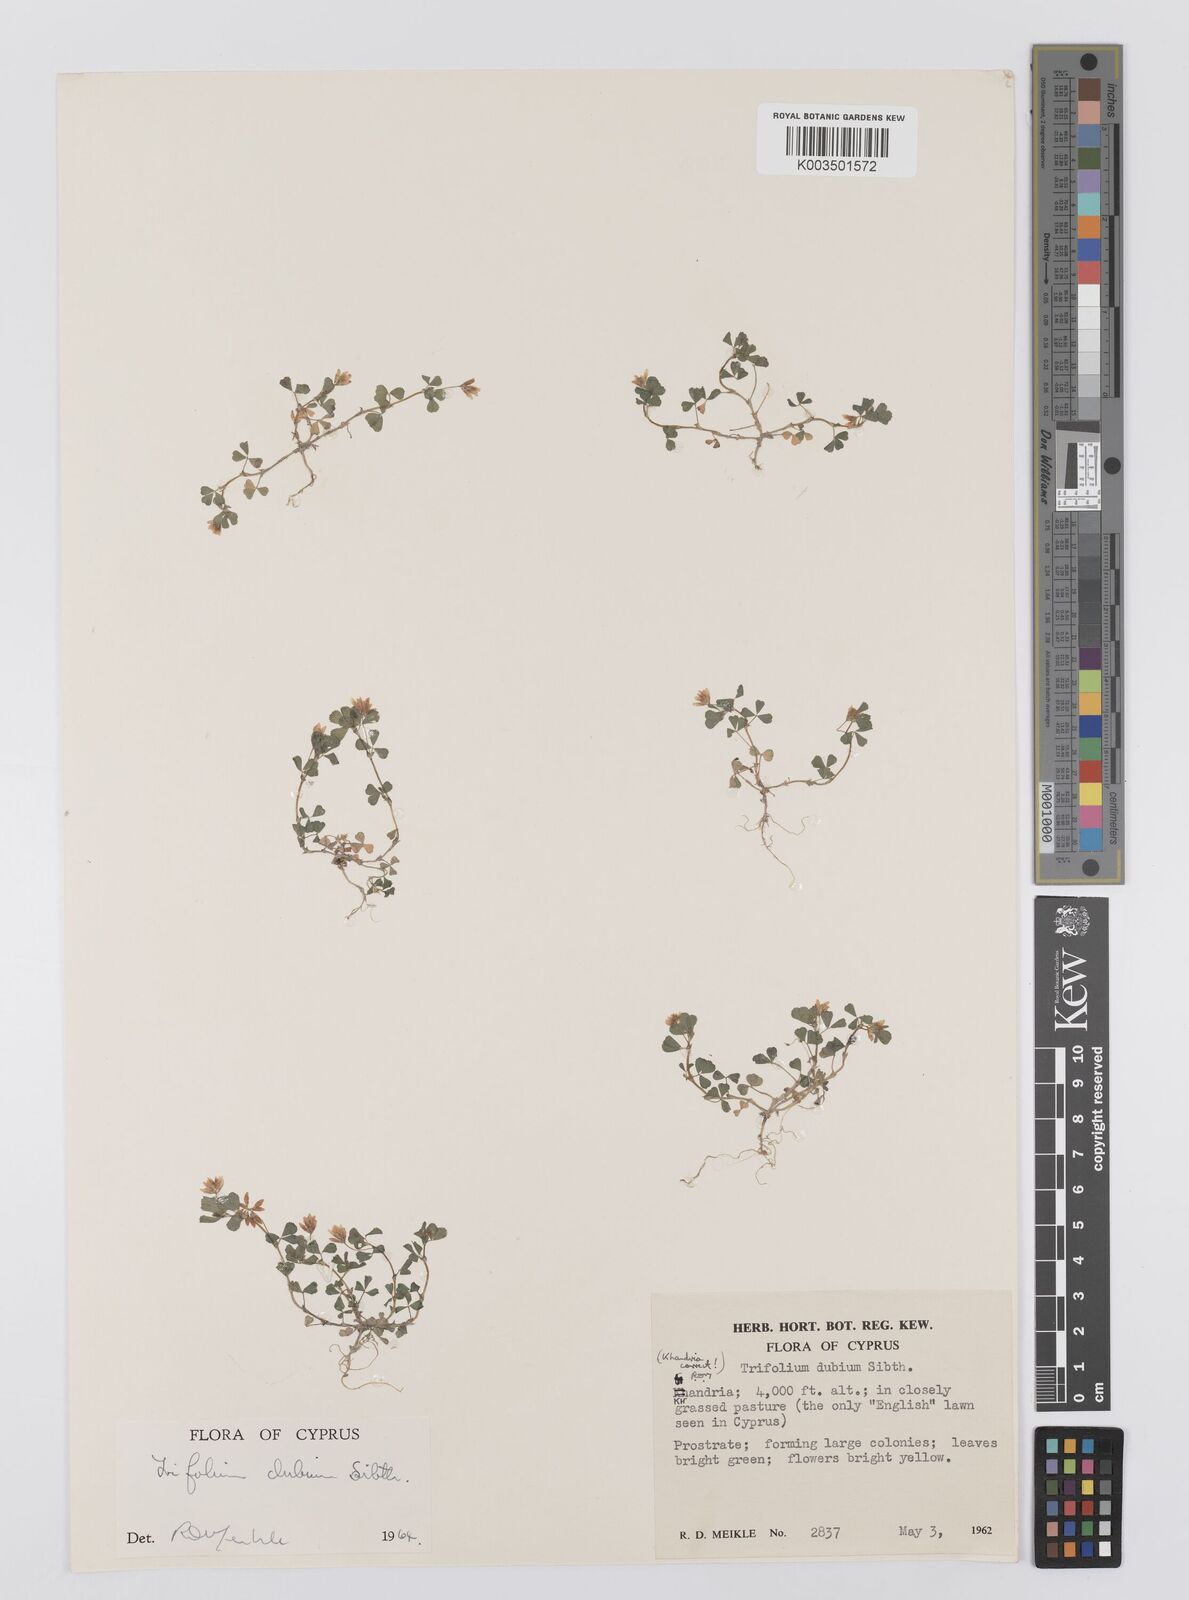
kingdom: Plantae
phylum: Tracheophyta
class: Magnoliopsida
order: Fabales
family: Fabaceae
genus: Trifolium
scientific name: Trifolium dubium
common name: Suckling clover
